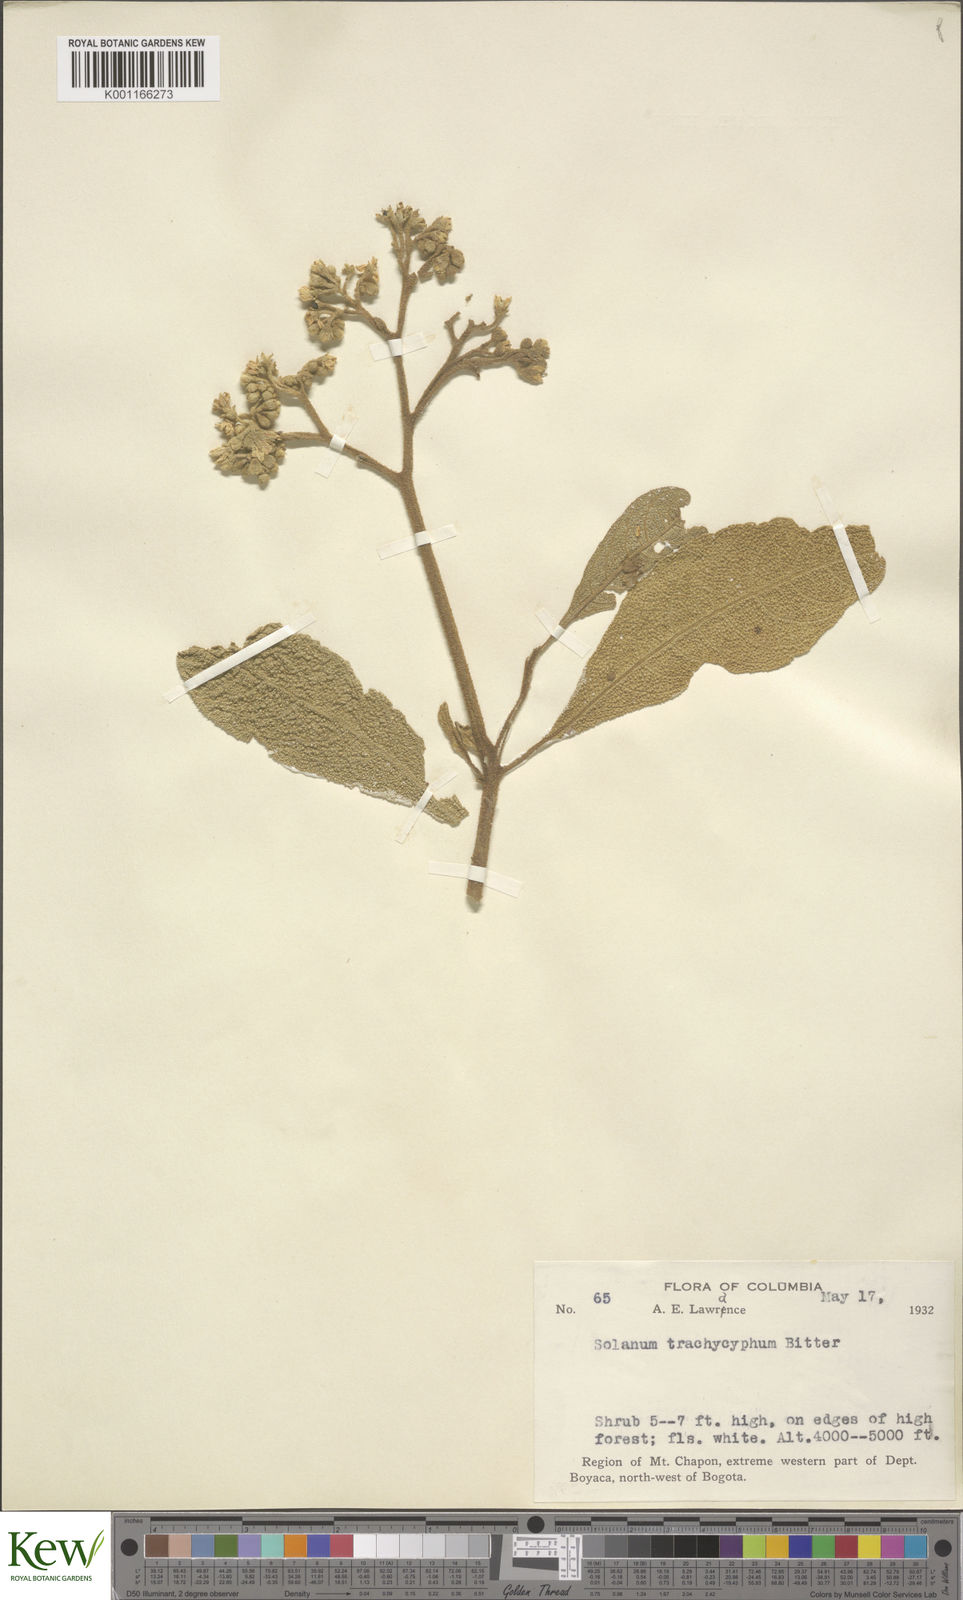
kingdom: Plantae
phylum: Tracheophyta
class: Magnoliopsida
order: Solanales
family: Solanaceae
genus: Solanum
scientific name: Solanum trachycyphum
